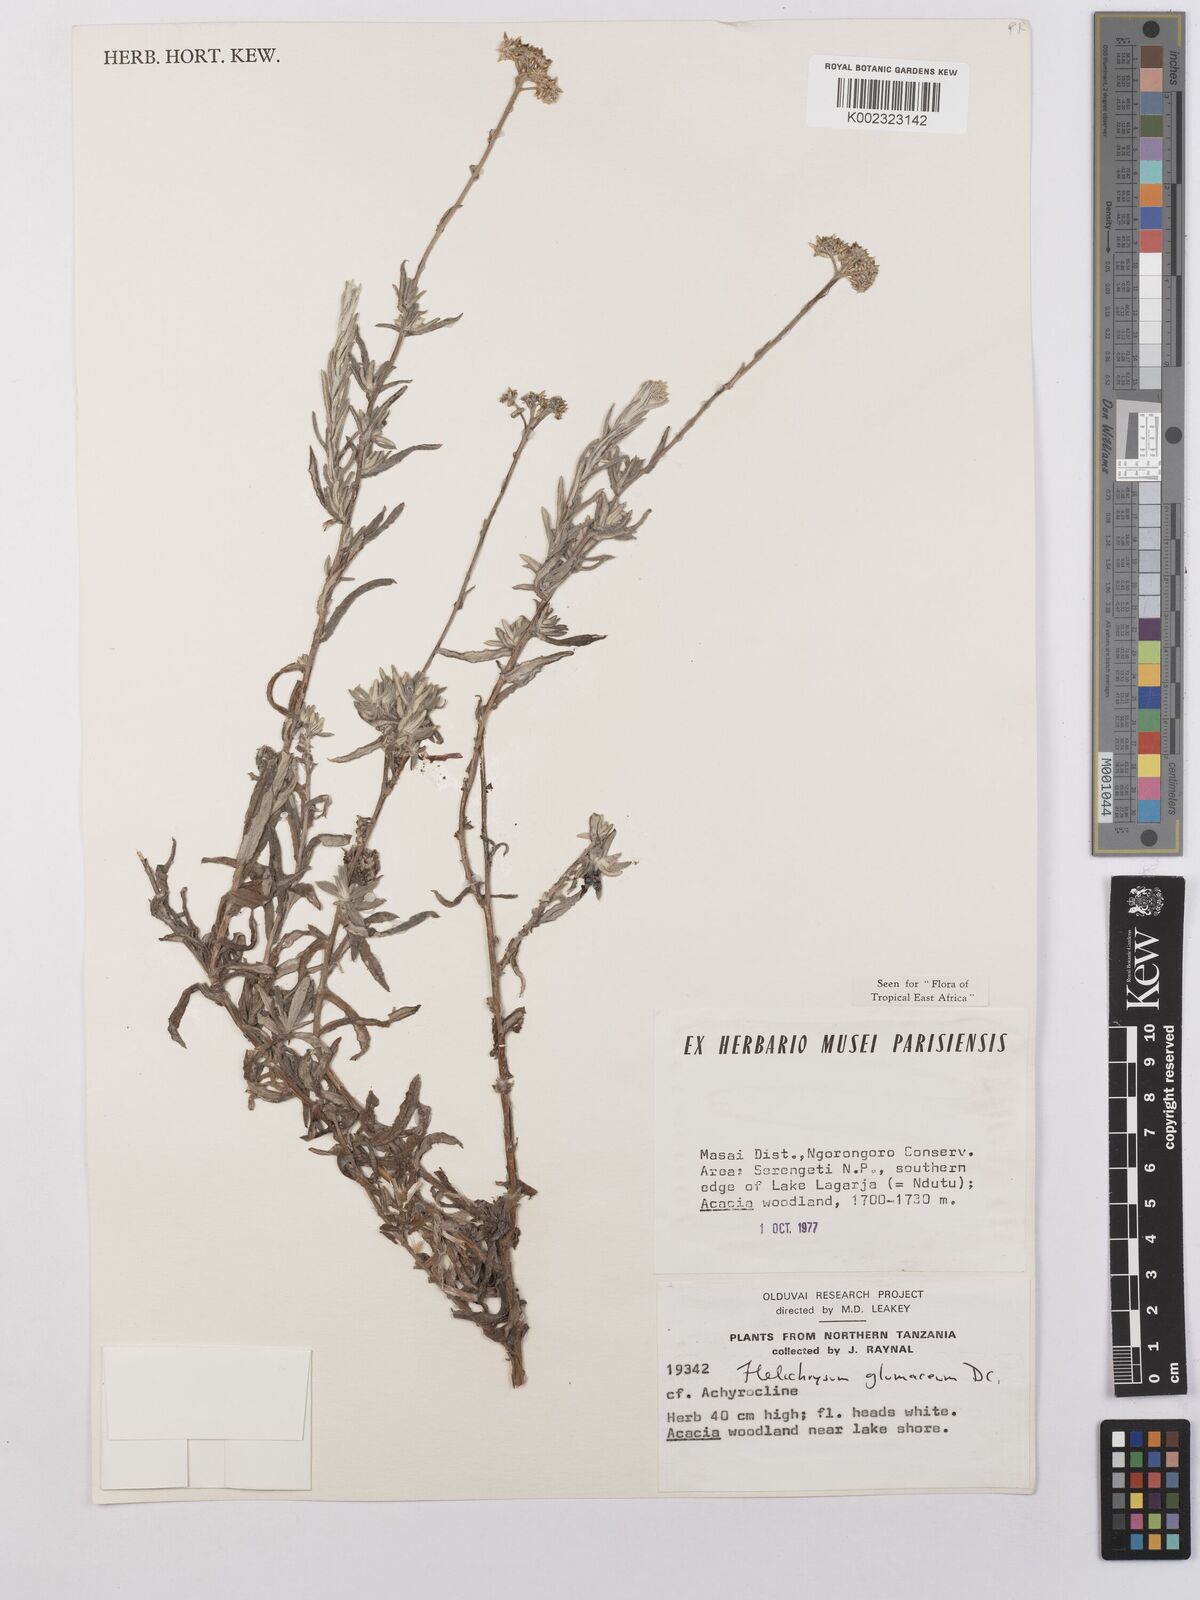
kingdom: Plantae
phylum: Tracheophyta
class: Magnoliopsida
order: Asterales
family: Asteraceae
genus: Helichrysum
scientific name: Helichrysum glumaceum
